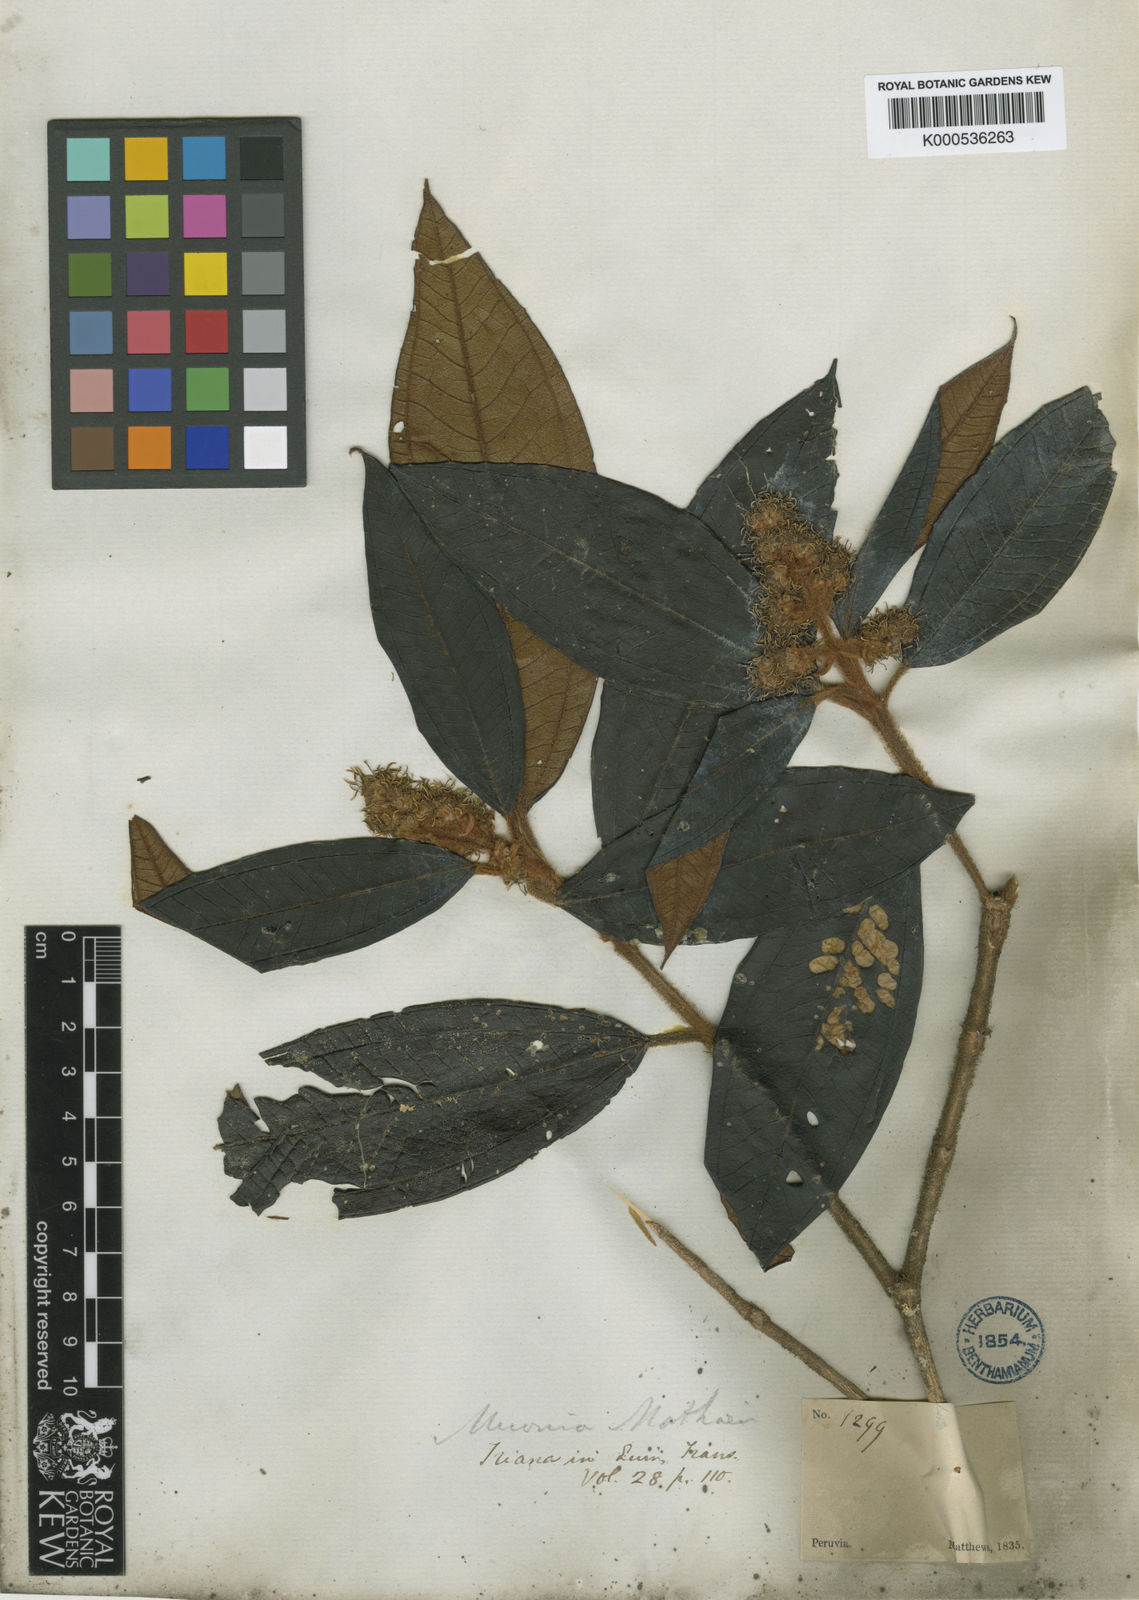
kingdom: Plantae
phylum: Tracheophyta
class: Magnoliopsida
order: Myrtales
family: Melastomataceae
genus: Miconia
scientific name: Miconia matthaei
